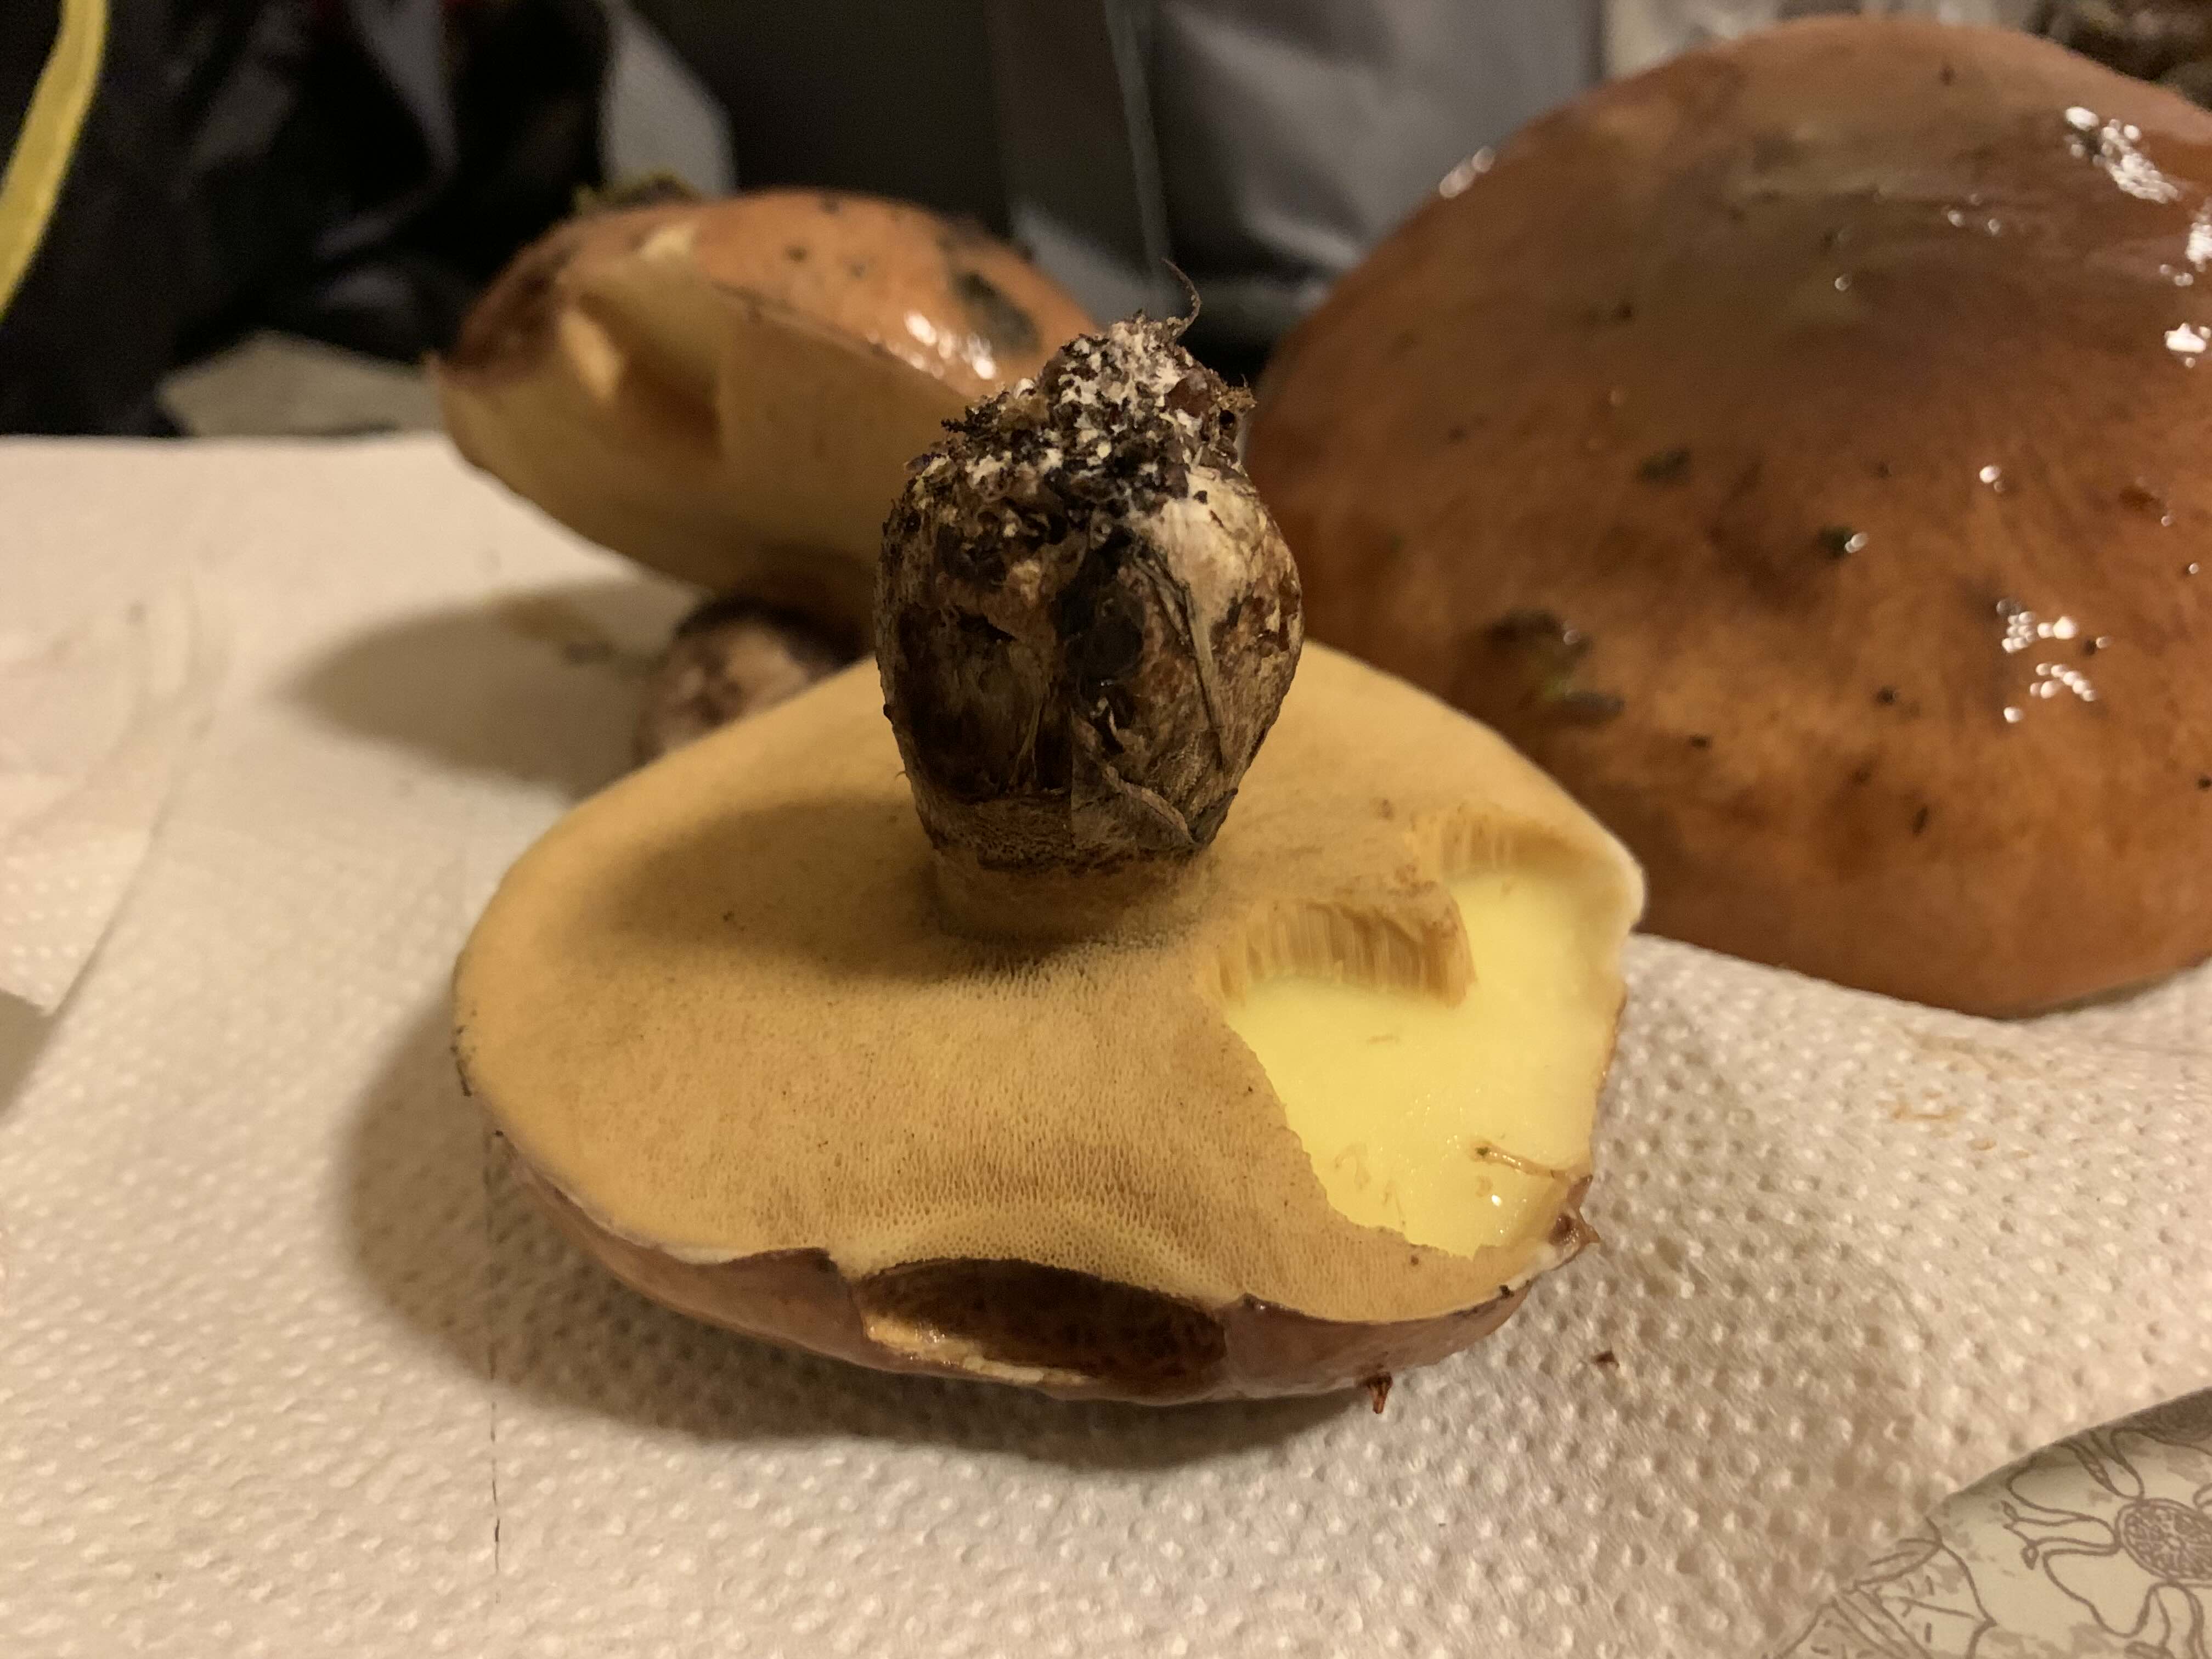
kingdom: Fungi
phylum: Basidiomycota
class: Agaricomycetes
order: Boletales
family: Suillaceae
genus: Suillus
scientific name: Suillus luteus
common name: brungul slimrørhat
